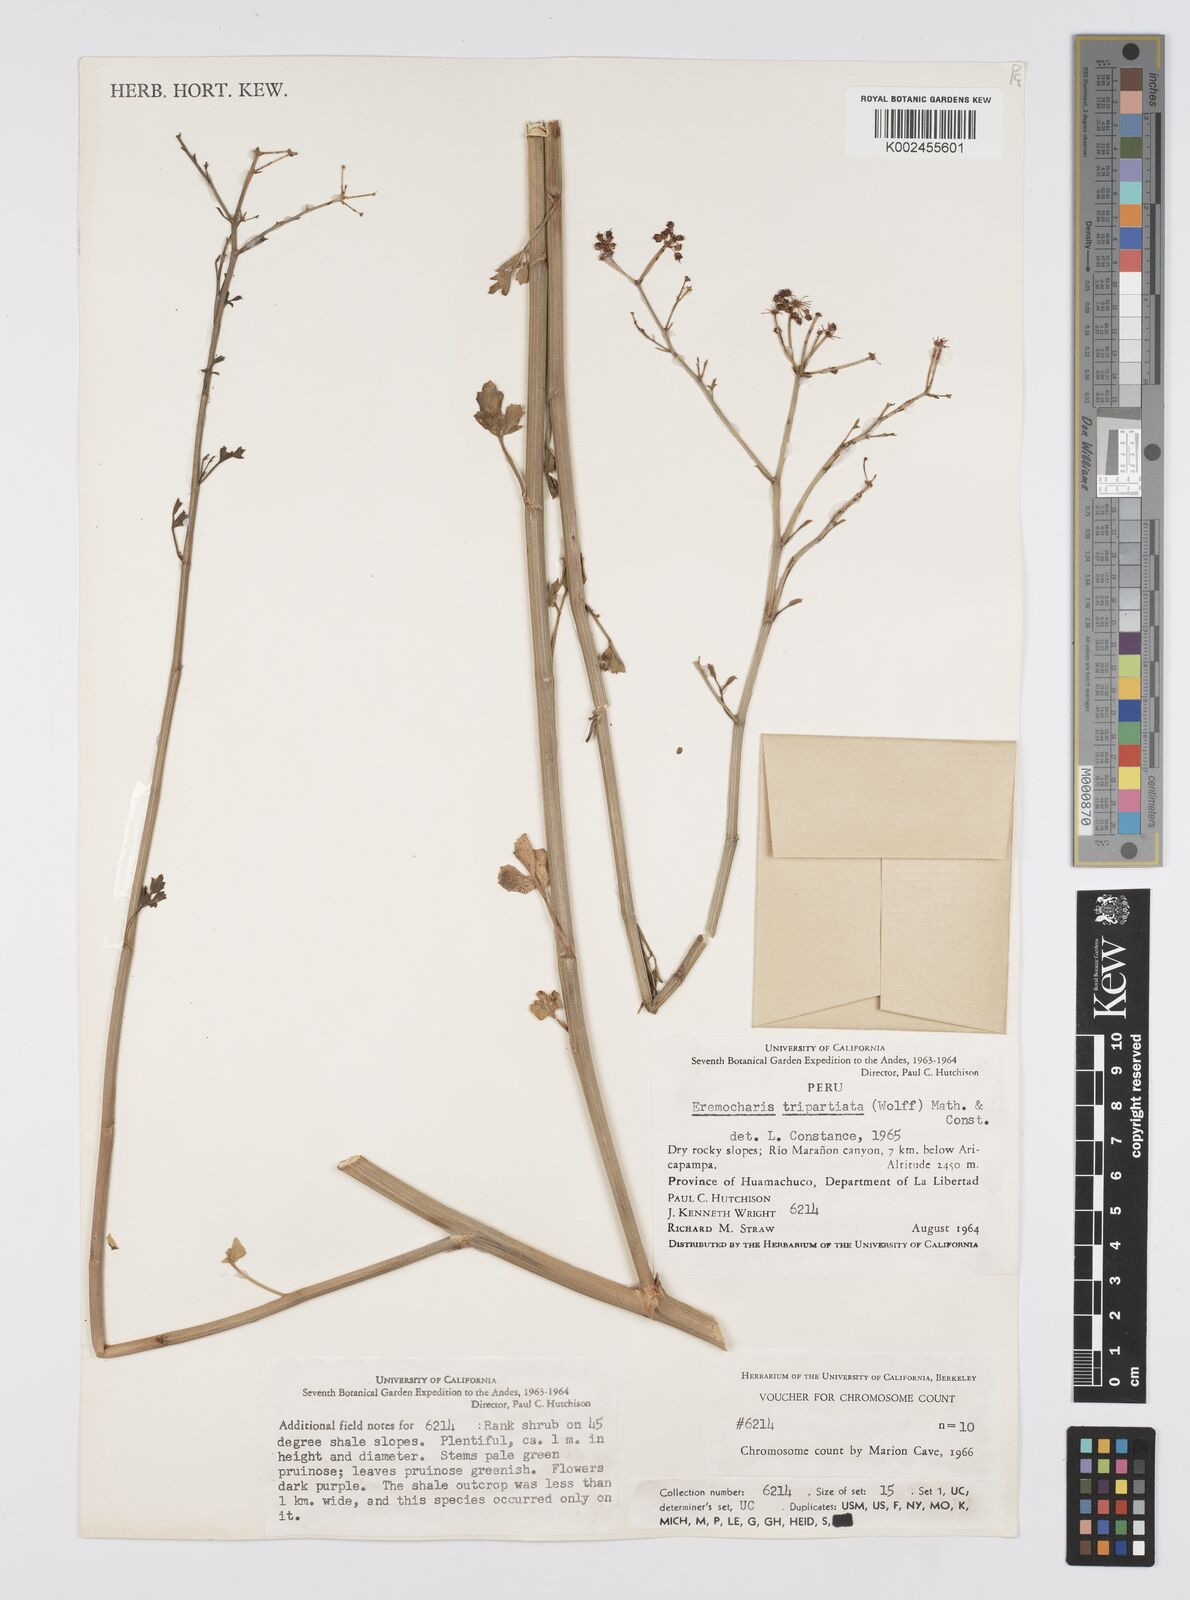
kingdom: Plantae
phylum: Tracheophyta
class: Magnoliopsida
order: Apiales
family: Apiaceae
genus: Eremocharis
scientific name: Eremocharis triradiata
